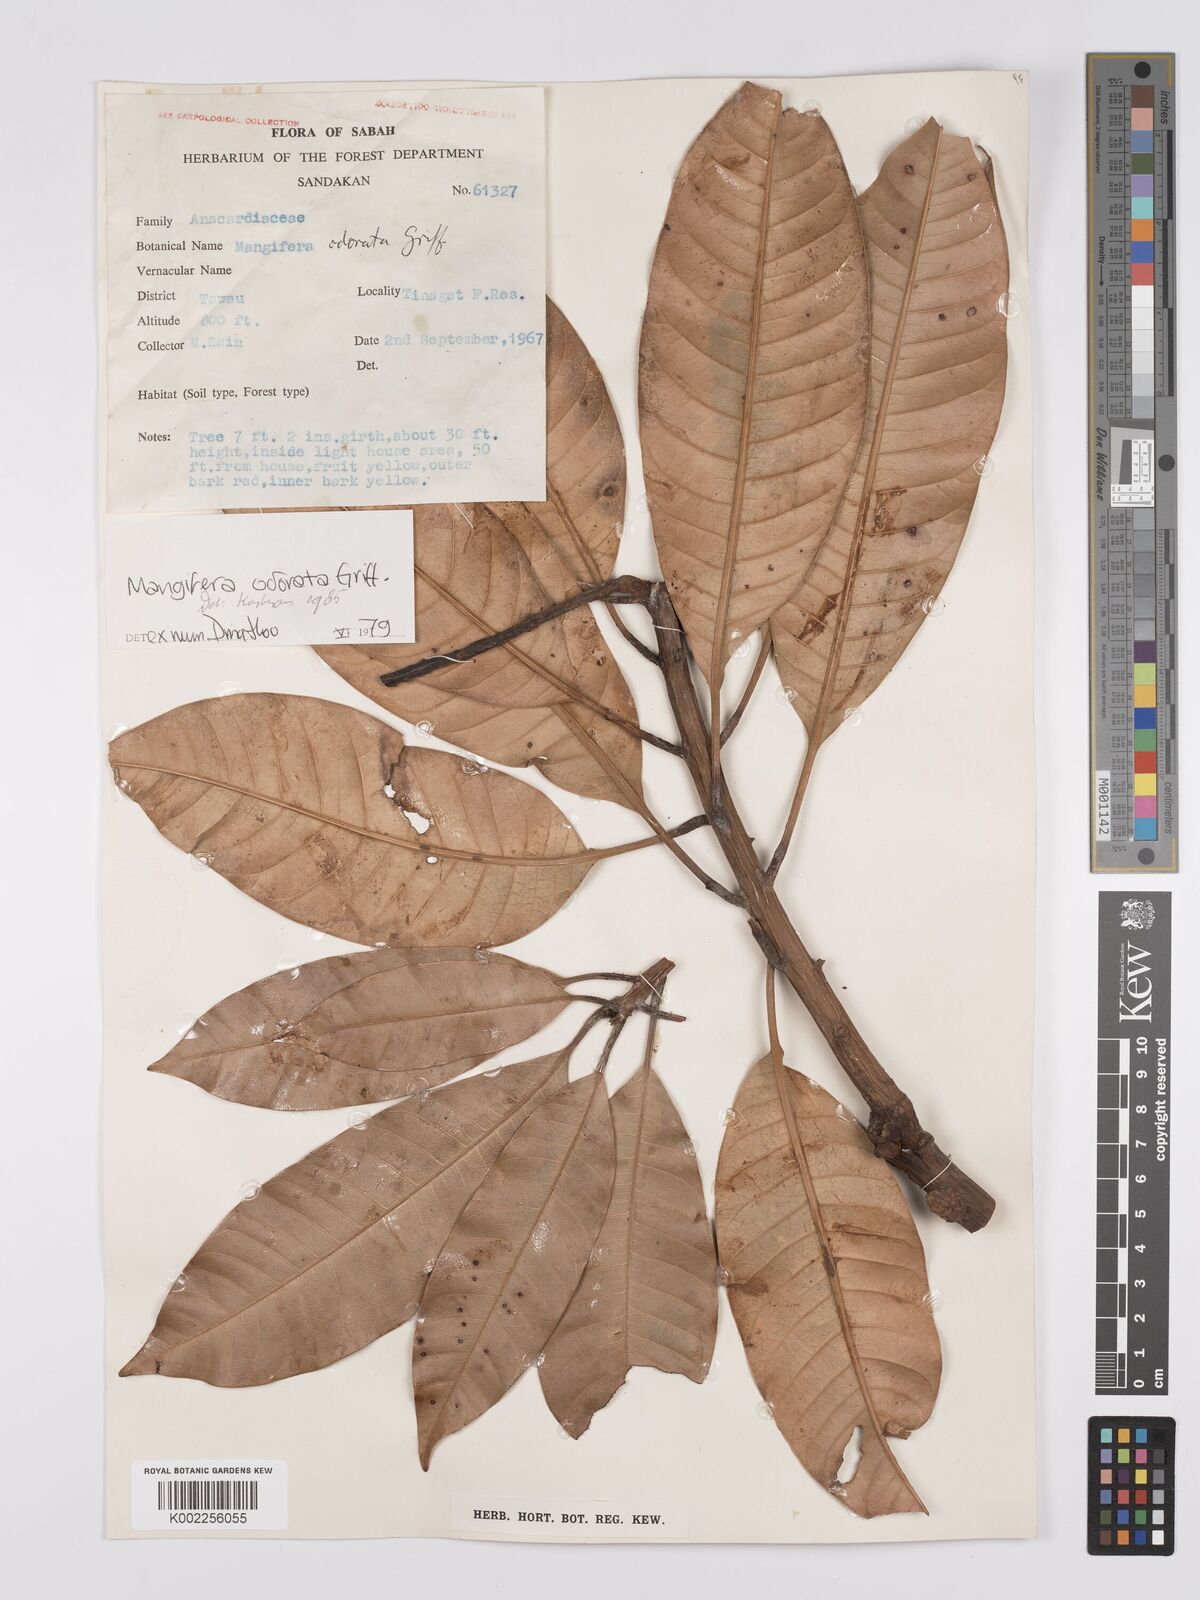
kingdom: Plantae
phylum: Tracheophyta
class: Magnoliopsida
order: Sapindales
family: Anacardiaceae
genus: Mangifera
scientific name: Mangifera odorata
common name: Saipan mango
